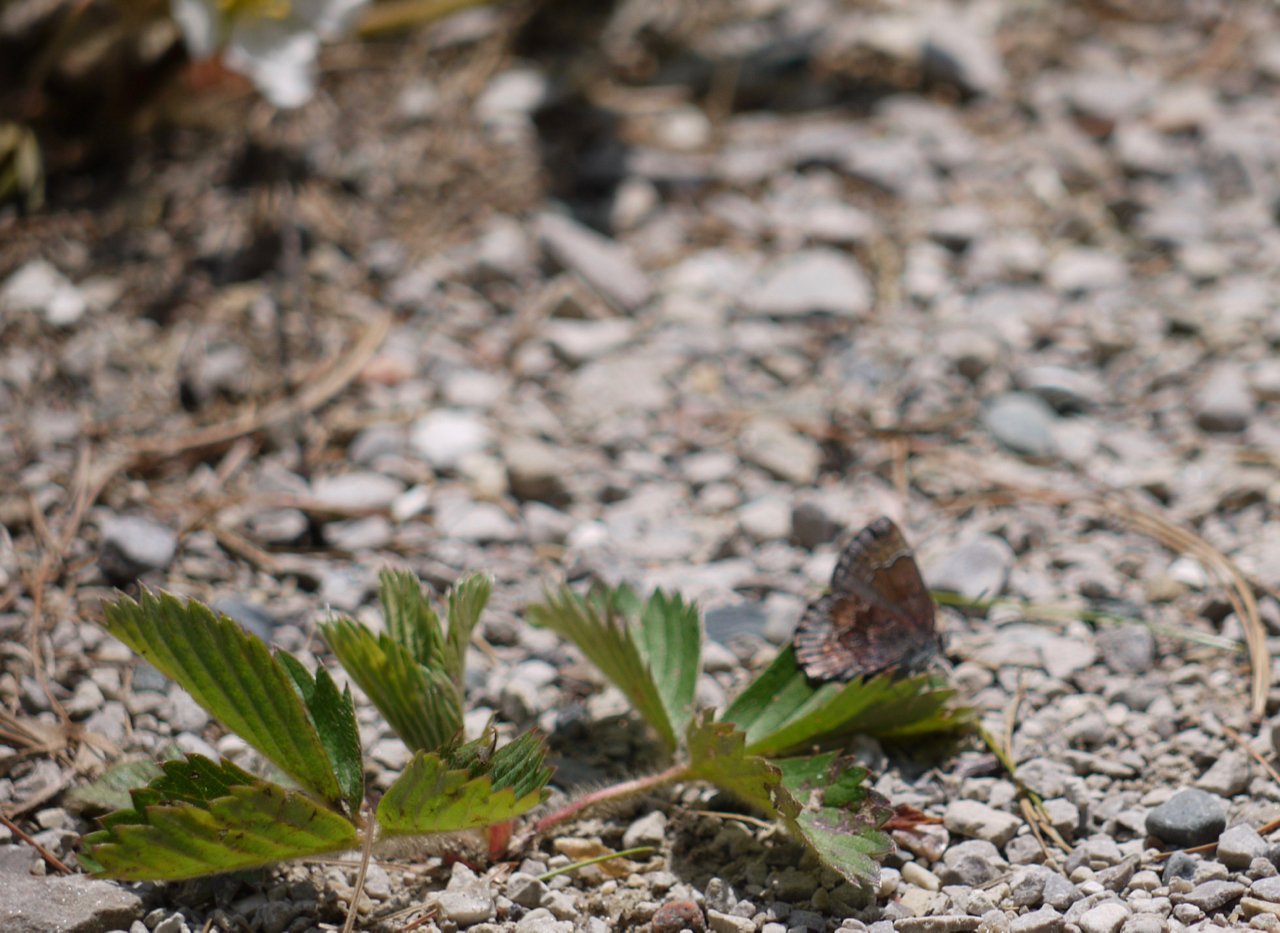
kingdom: Animalia
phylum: Arthropoda
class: Insecta
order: Lepidoptera
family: Lycaenidae
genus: Callophrys
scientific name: Callophrys polios
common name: Hoary Elfin
